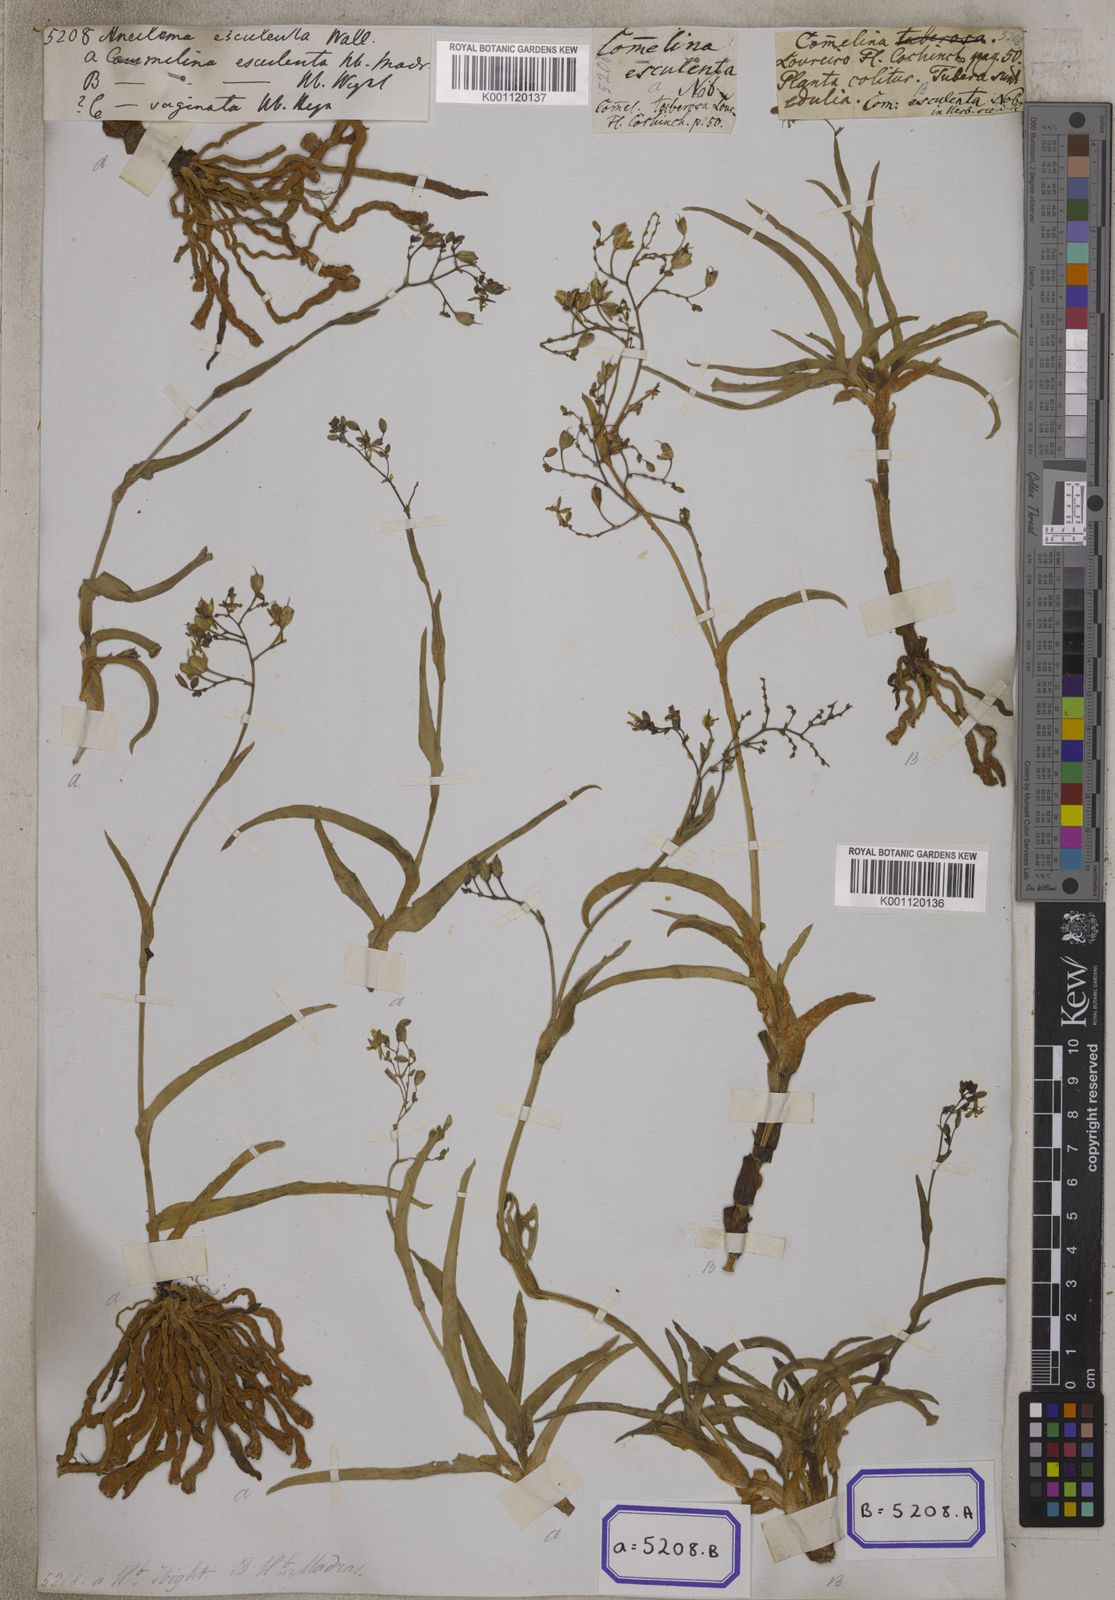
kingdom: Plantae
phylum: Tracheophyta
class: Liliopsida
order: Commelinales
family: Commelinaceae
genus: Aneilema
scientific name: Aneilema
